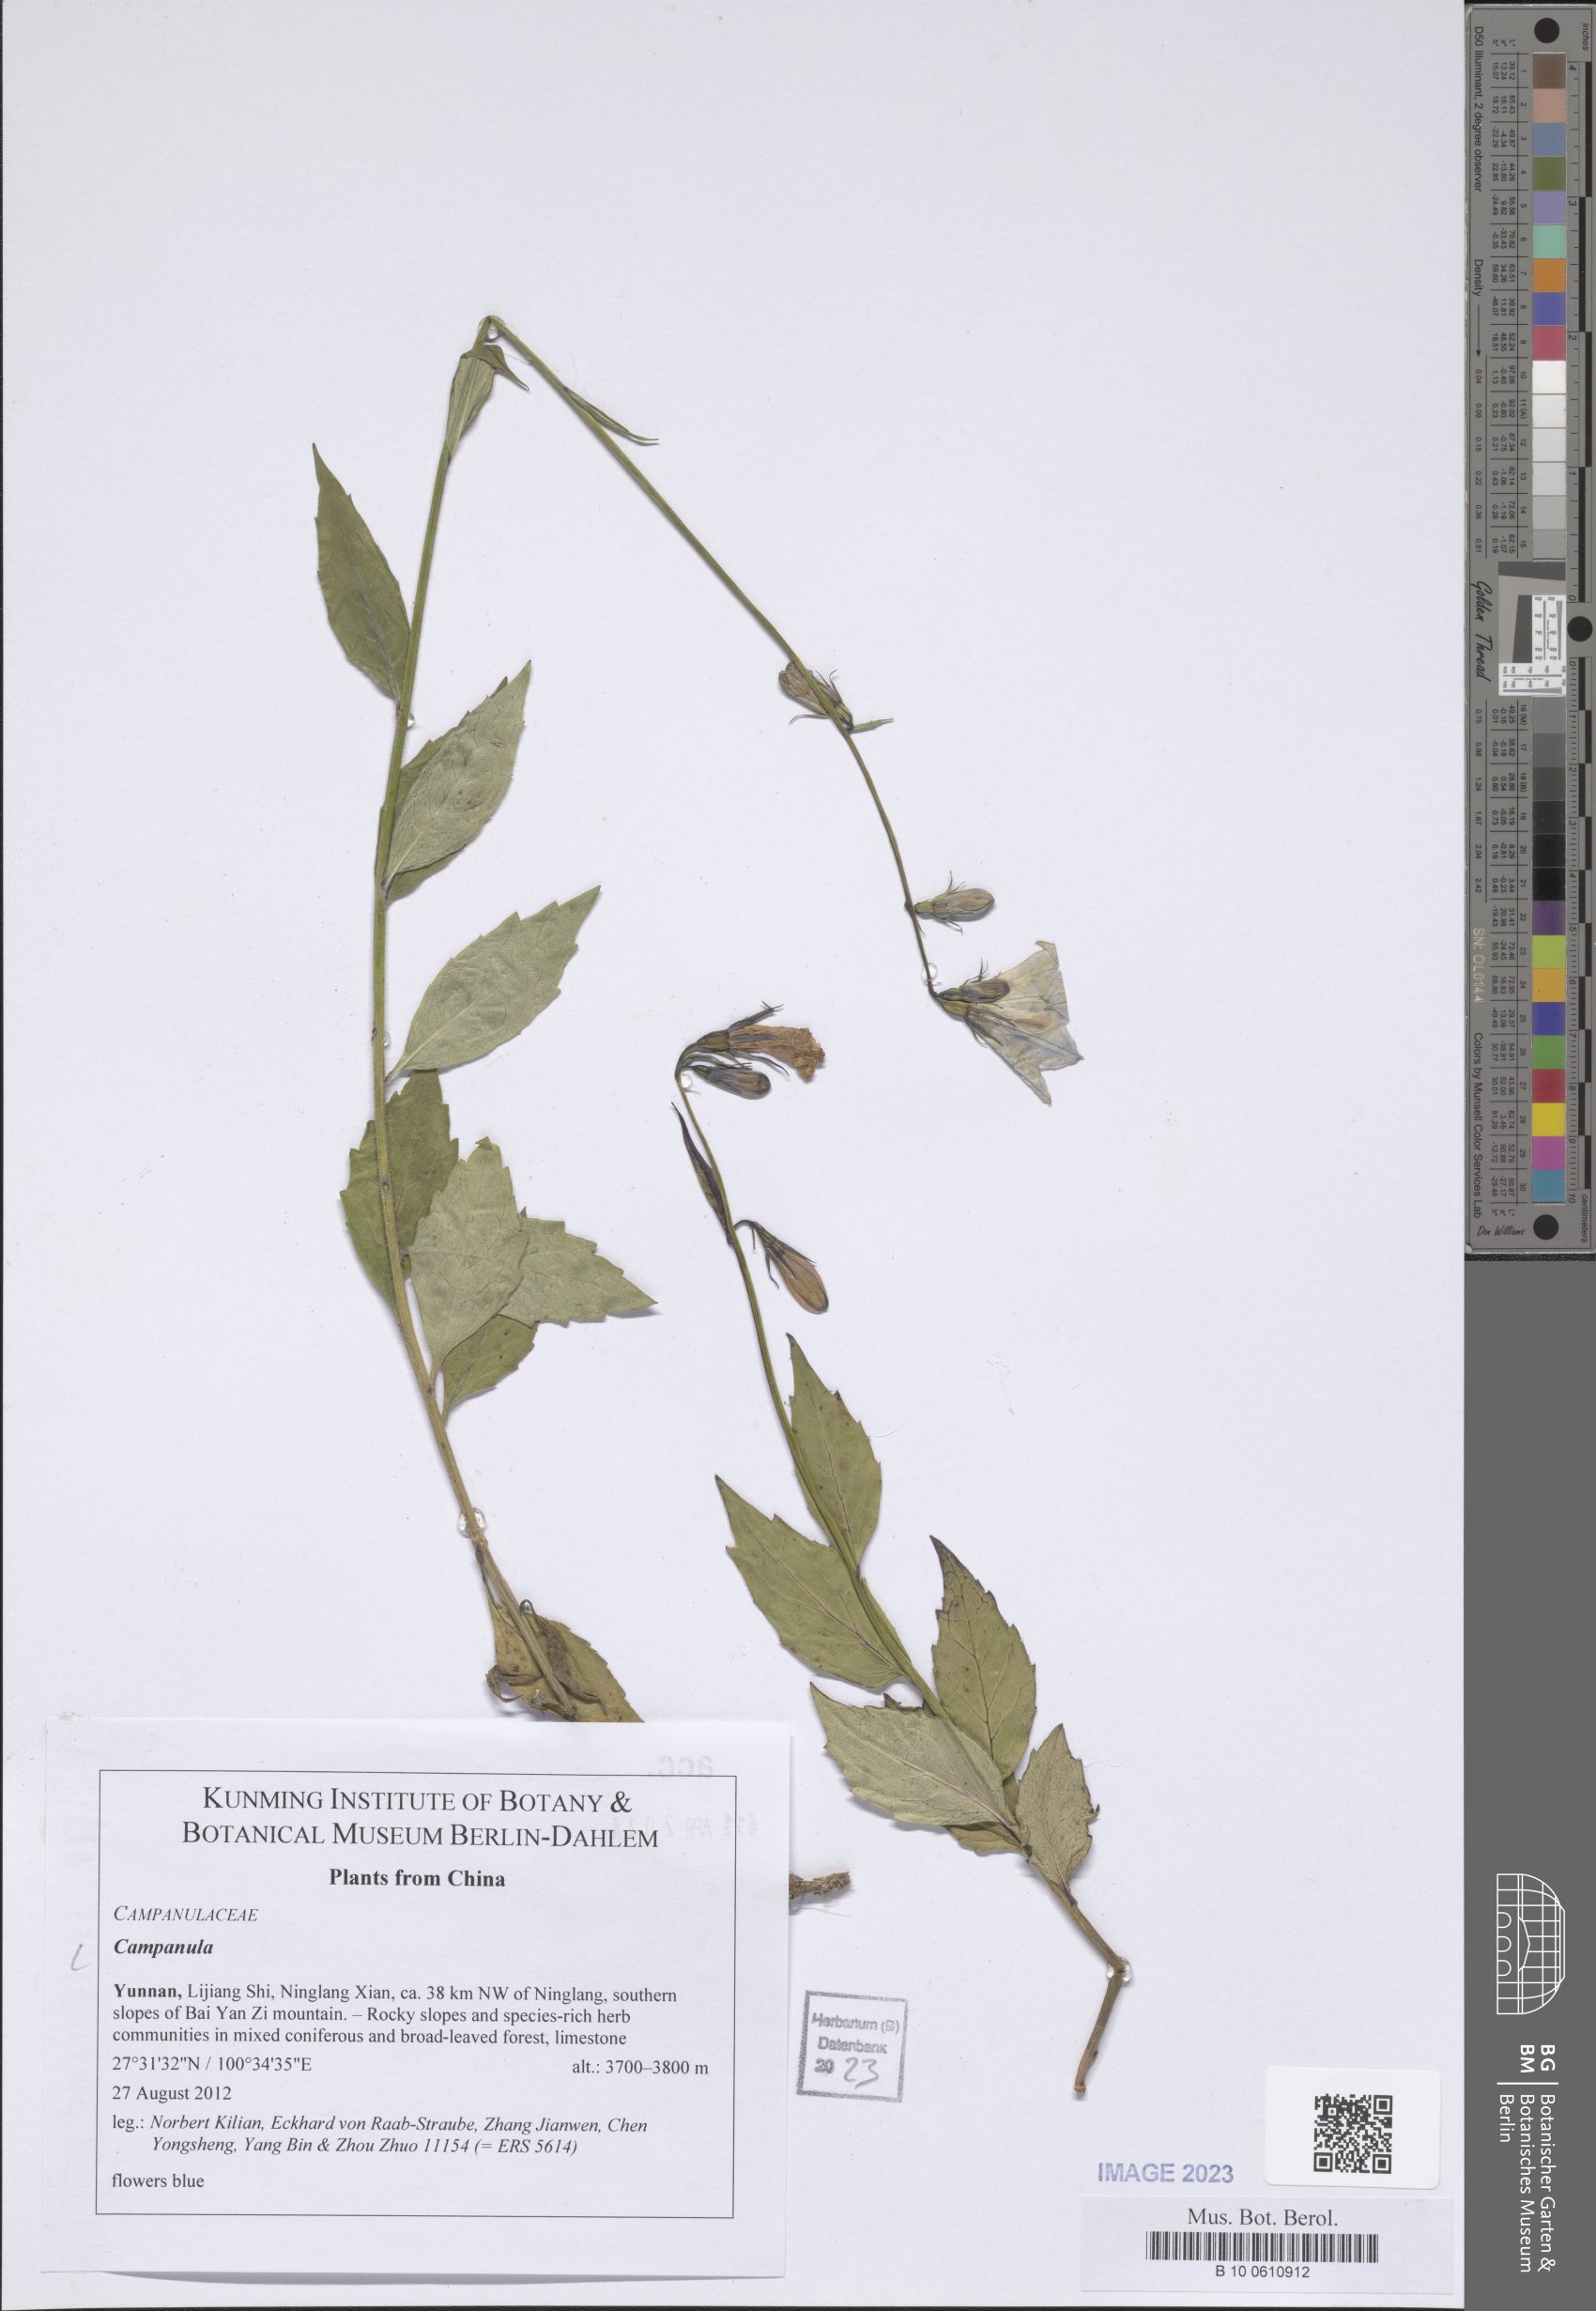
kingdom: Plantae
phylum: Tracheophyta
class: Magnoliopsida
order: Asterales
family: Campanulaceae
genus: Campanula
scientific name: Campanula
